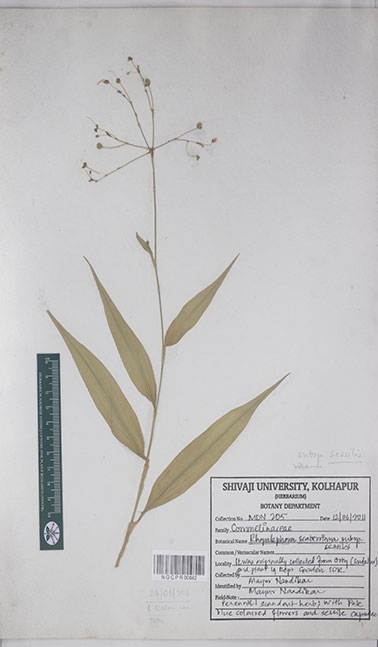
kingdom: Plantae
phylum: Tracheophyta
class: Liliopsida
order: Commelinales
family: Commelinaceae
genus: Rhopalephora
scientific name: Rhopalephora scaberrima
